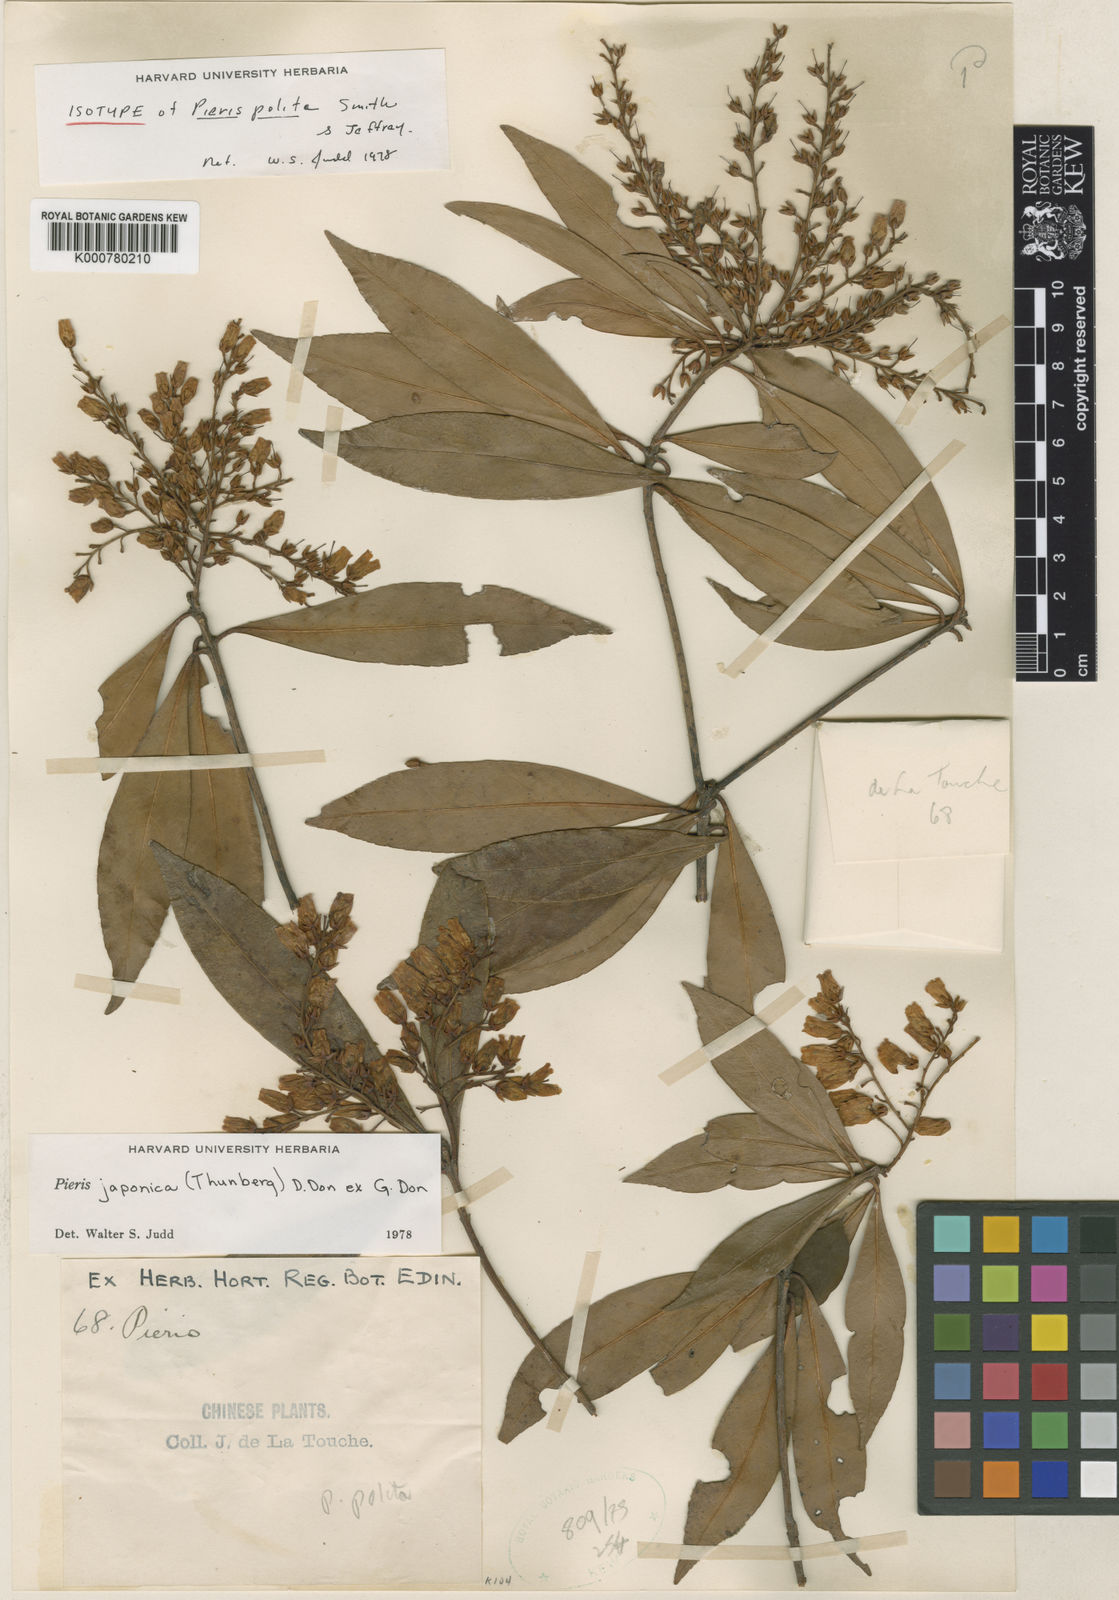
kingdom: Plantae
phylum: Tracheophyta
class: Magnoliopsida
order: Ericales
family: Ericaceae
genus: Pieris
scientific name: Pieris japonica
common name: Japanese pieris
